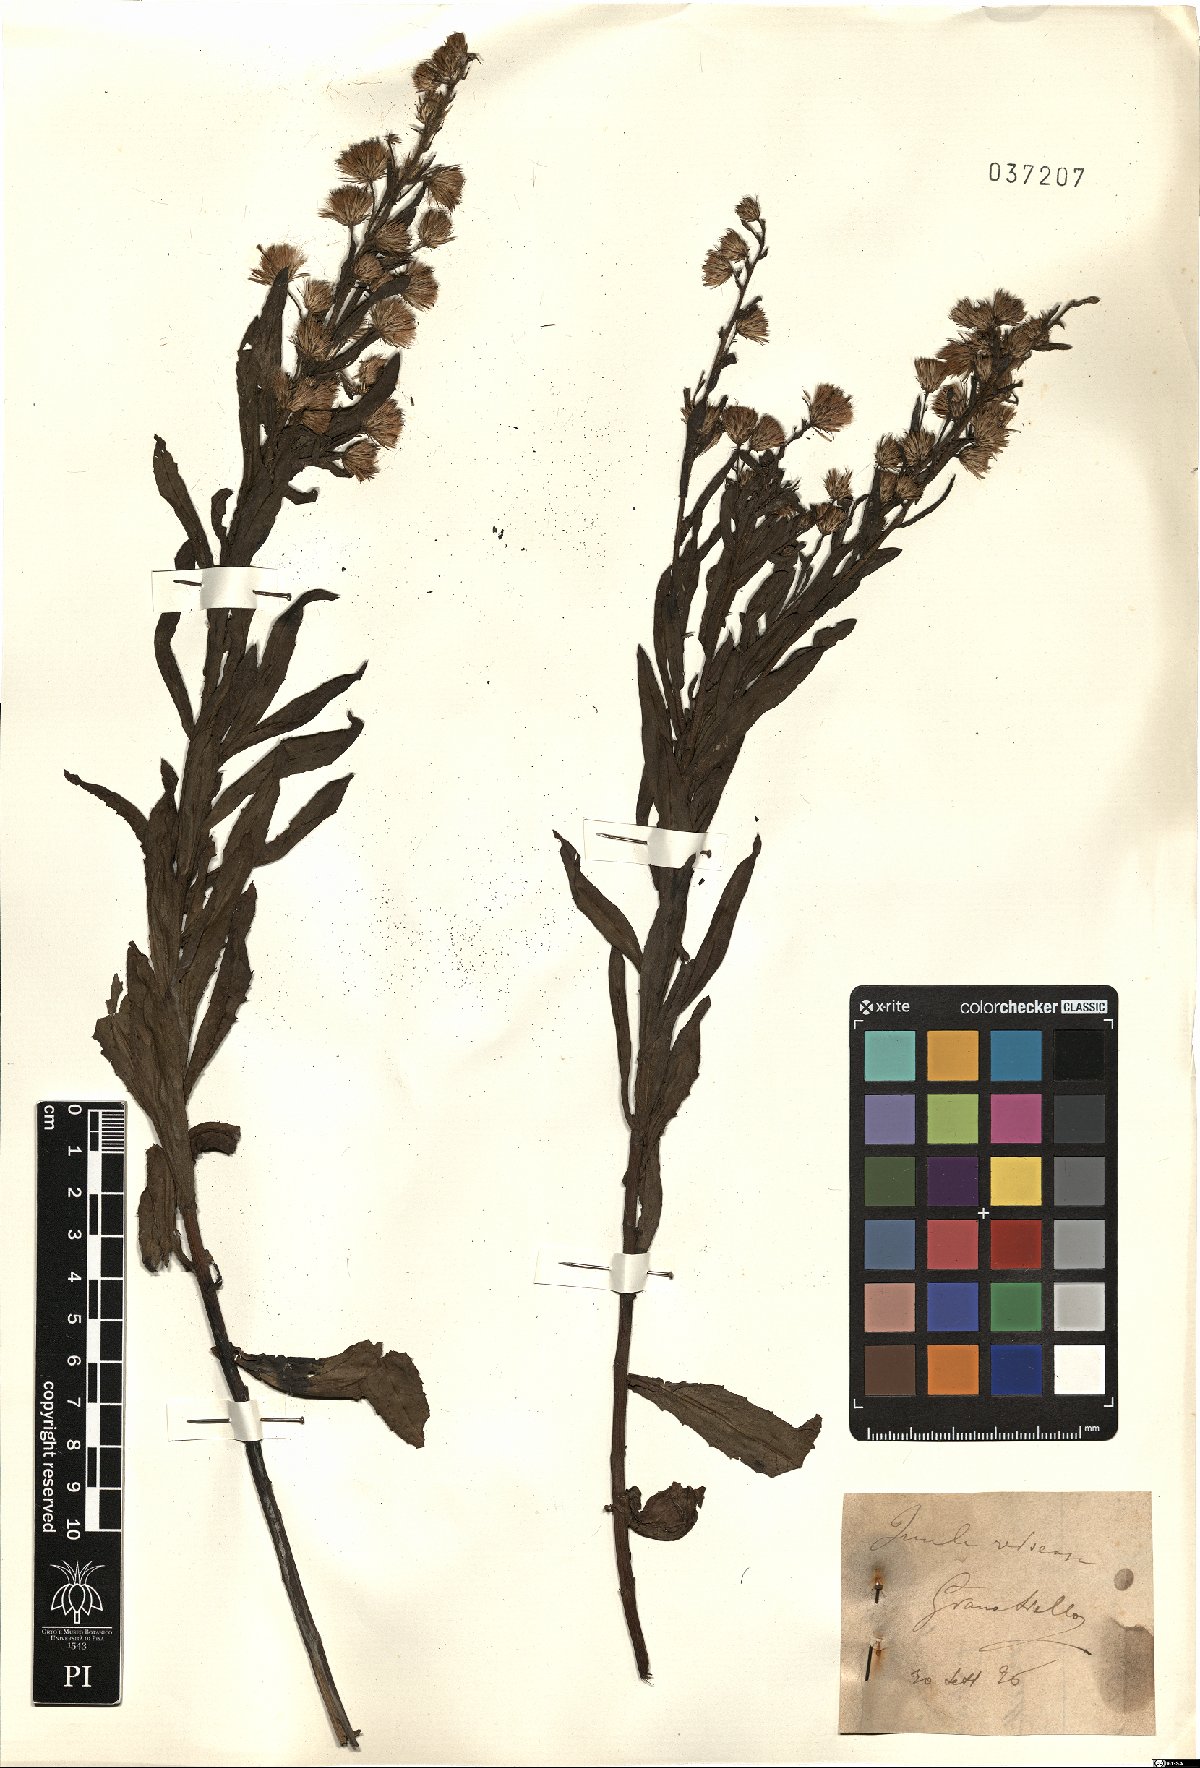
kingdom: Plantae
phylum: Tracheophyta
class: Magnoliopsida
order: Asterales
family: Asteraceae
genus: Dittrichia
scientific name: Dittrichia viscosa
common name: Woody fleabane
